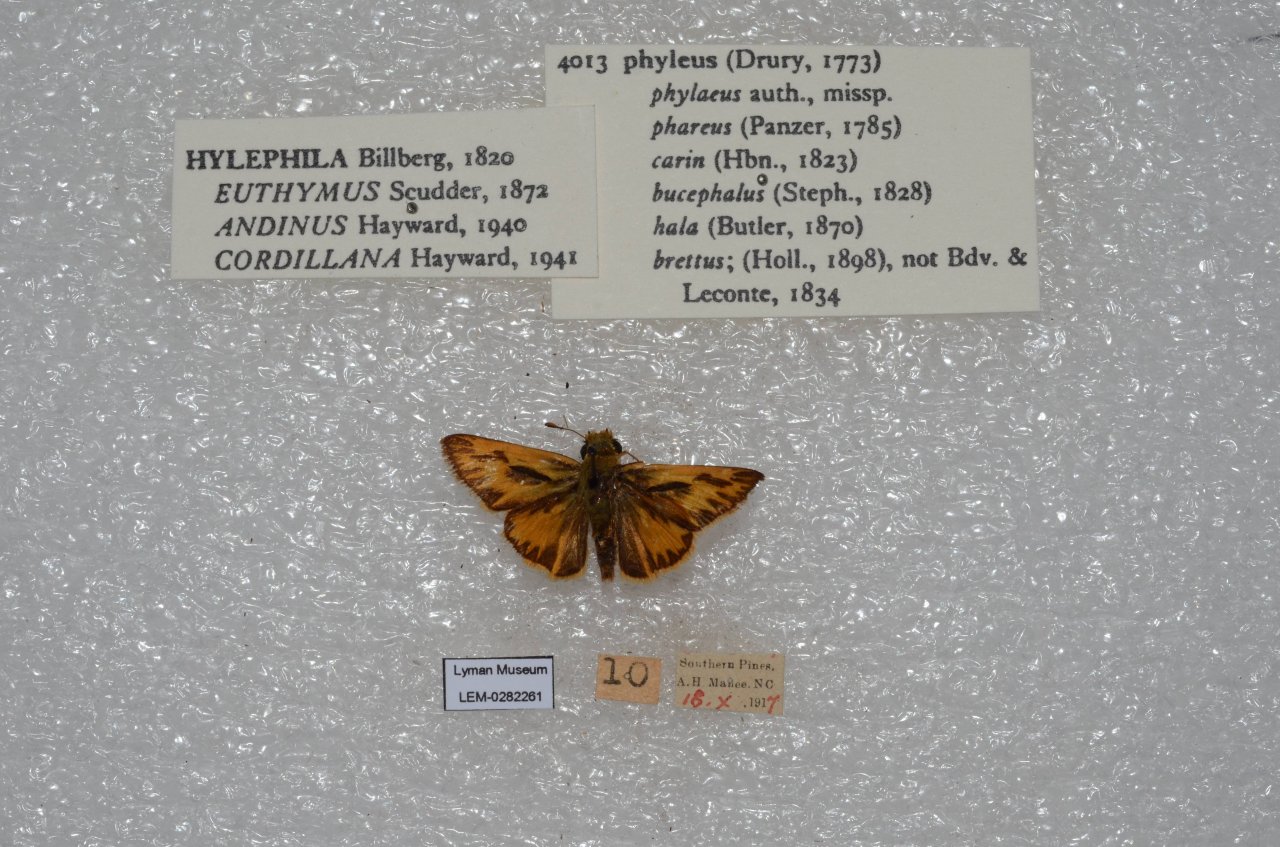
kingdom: Animalia
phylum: Arthropoda
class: Insecta
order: Lepidoptera
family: Hesperiidae
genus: Hylephila
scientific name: Hylephila phyleus
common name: Fiery Skipper
